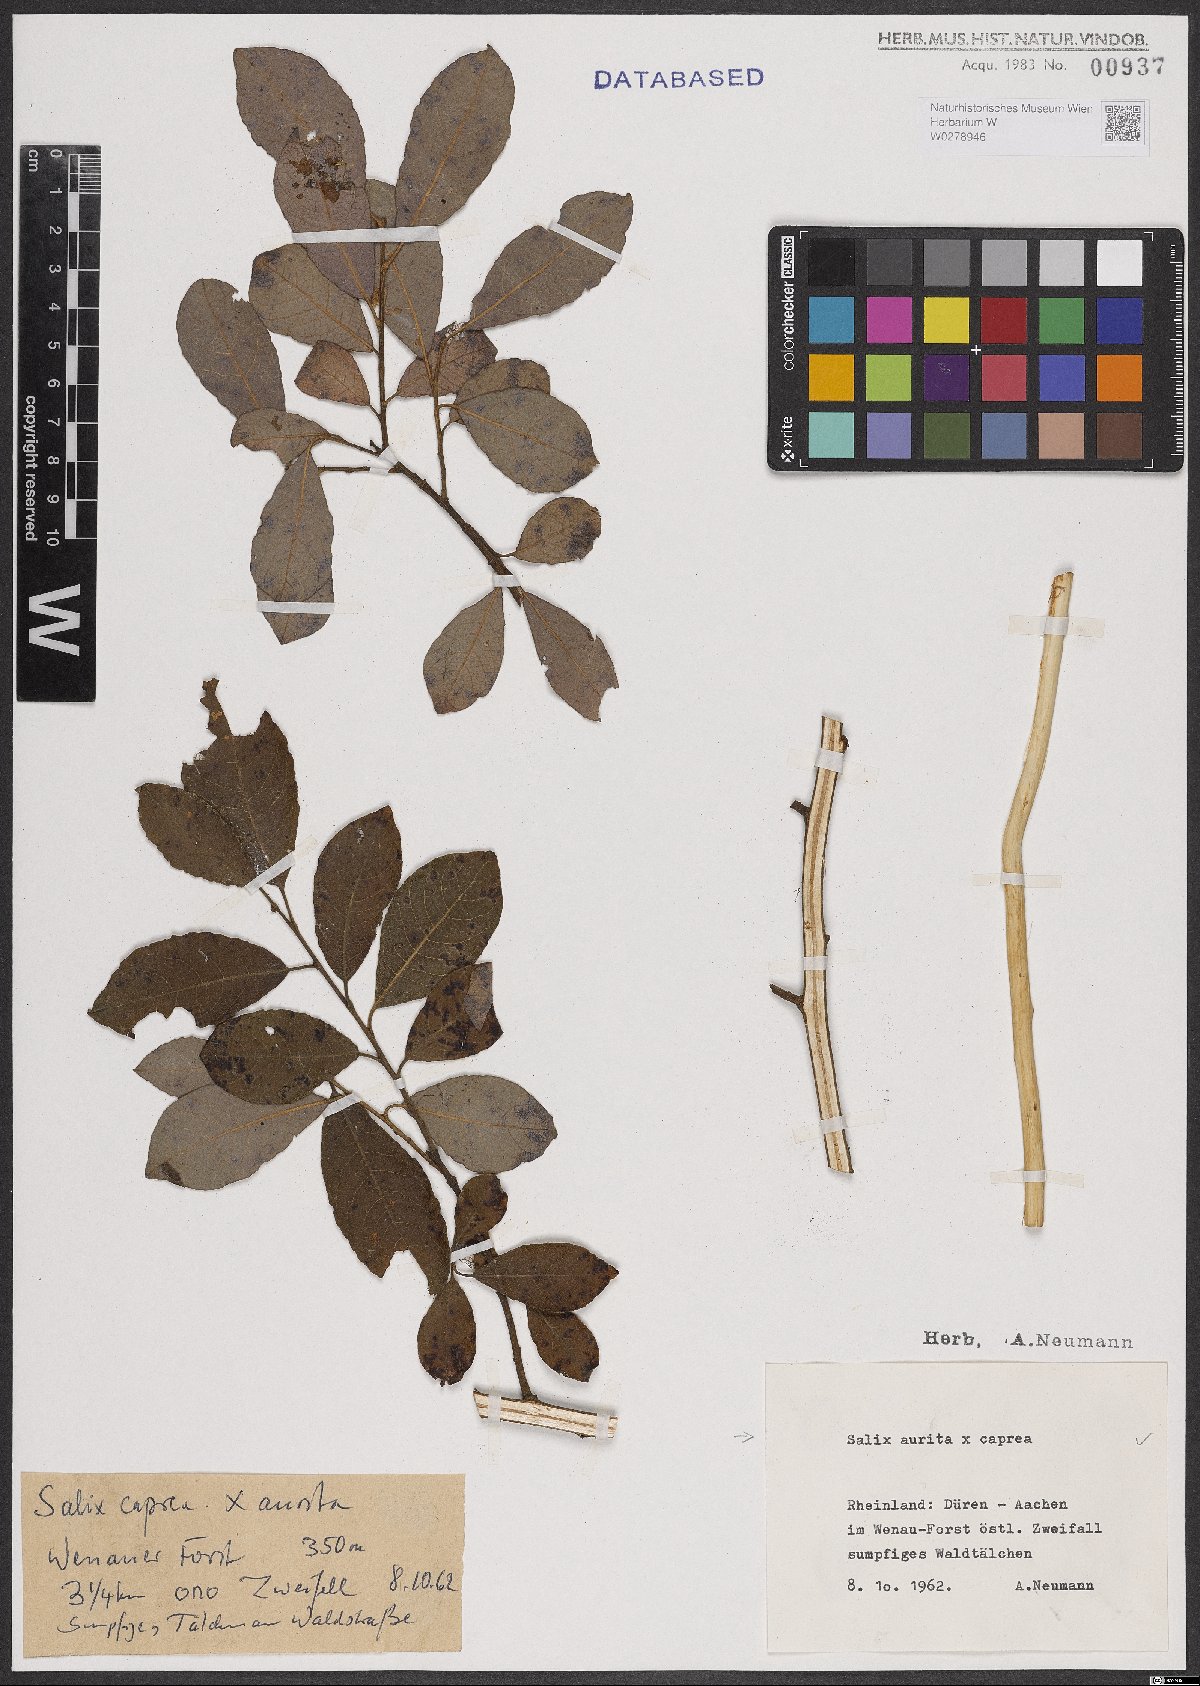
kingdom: Plantae
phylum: Tracheophyta
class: Magnoliopsida
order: Malpighiales
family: Salicaceae
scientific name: Salicaceae
